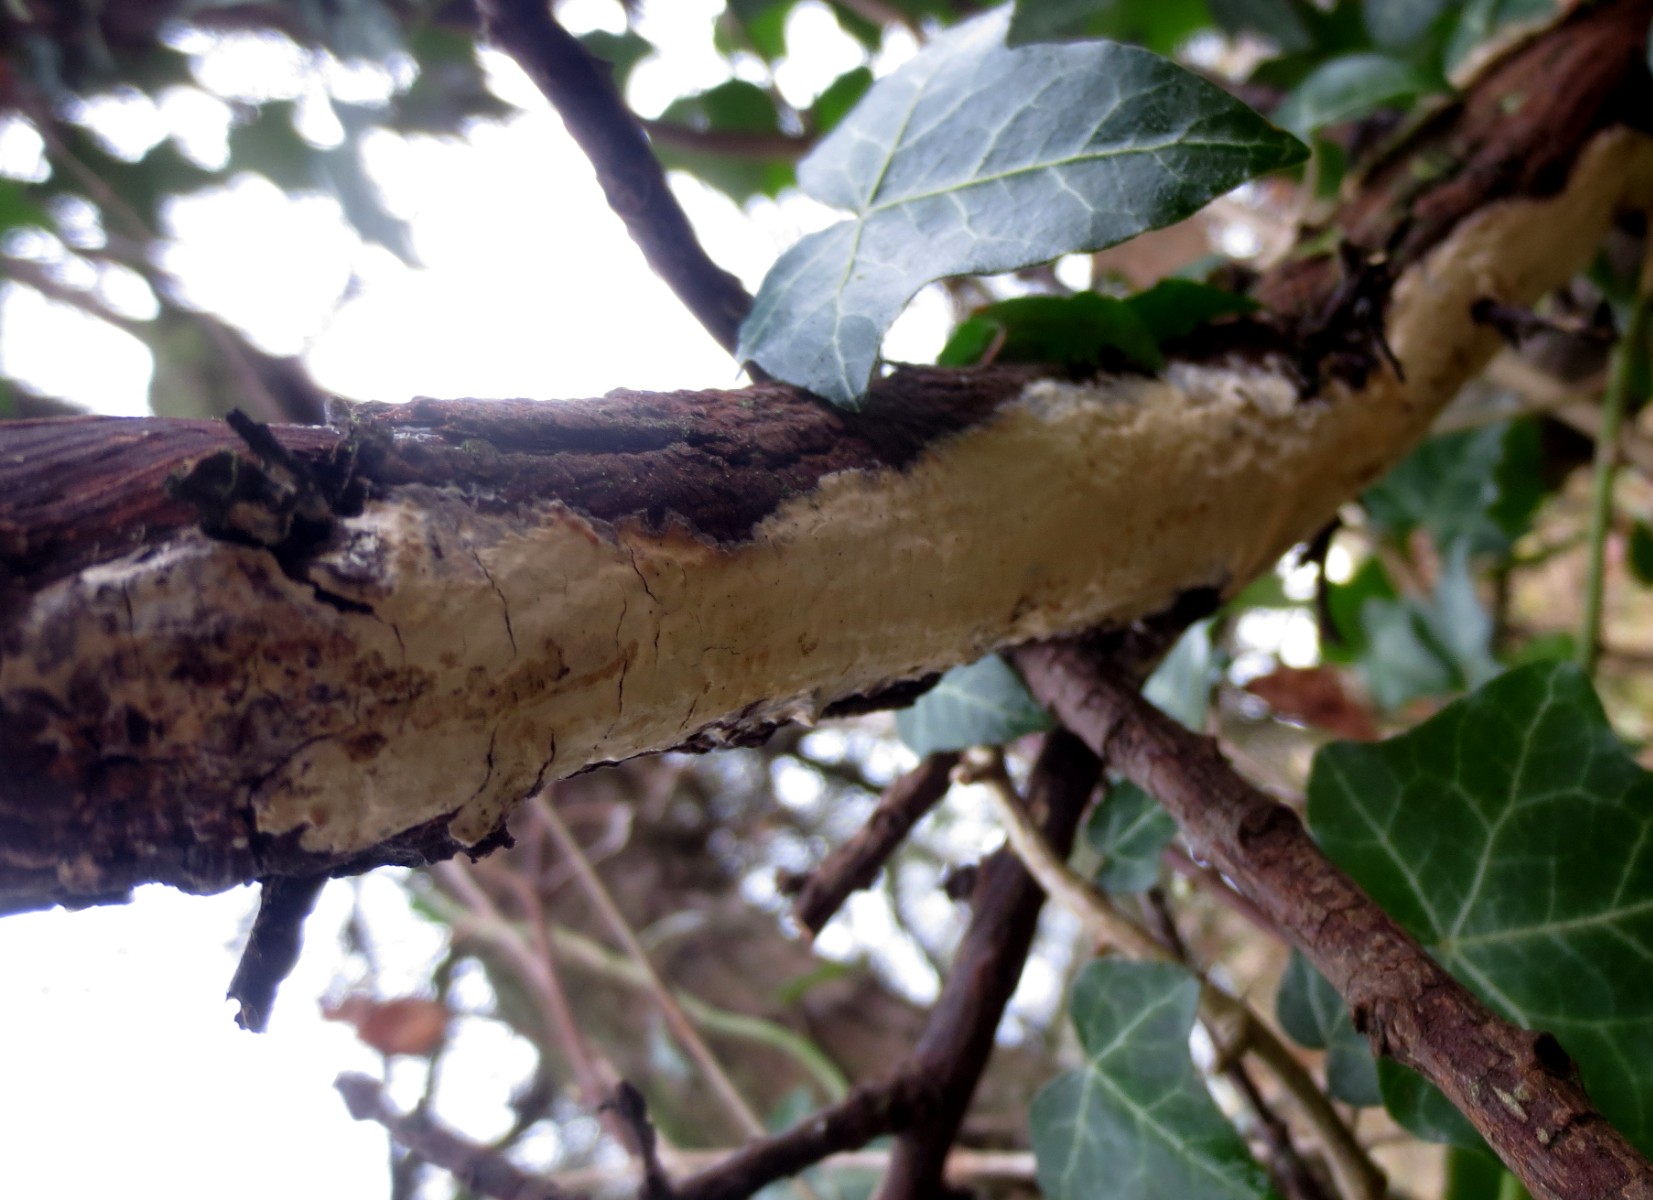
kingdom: Fungi
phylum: Basidiomycota
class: Agaricomycetes
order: Agaricales
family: Radulomycetaceae
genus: Radulomyces
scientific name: Radulomyces confluens
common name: glat naftalinskind
